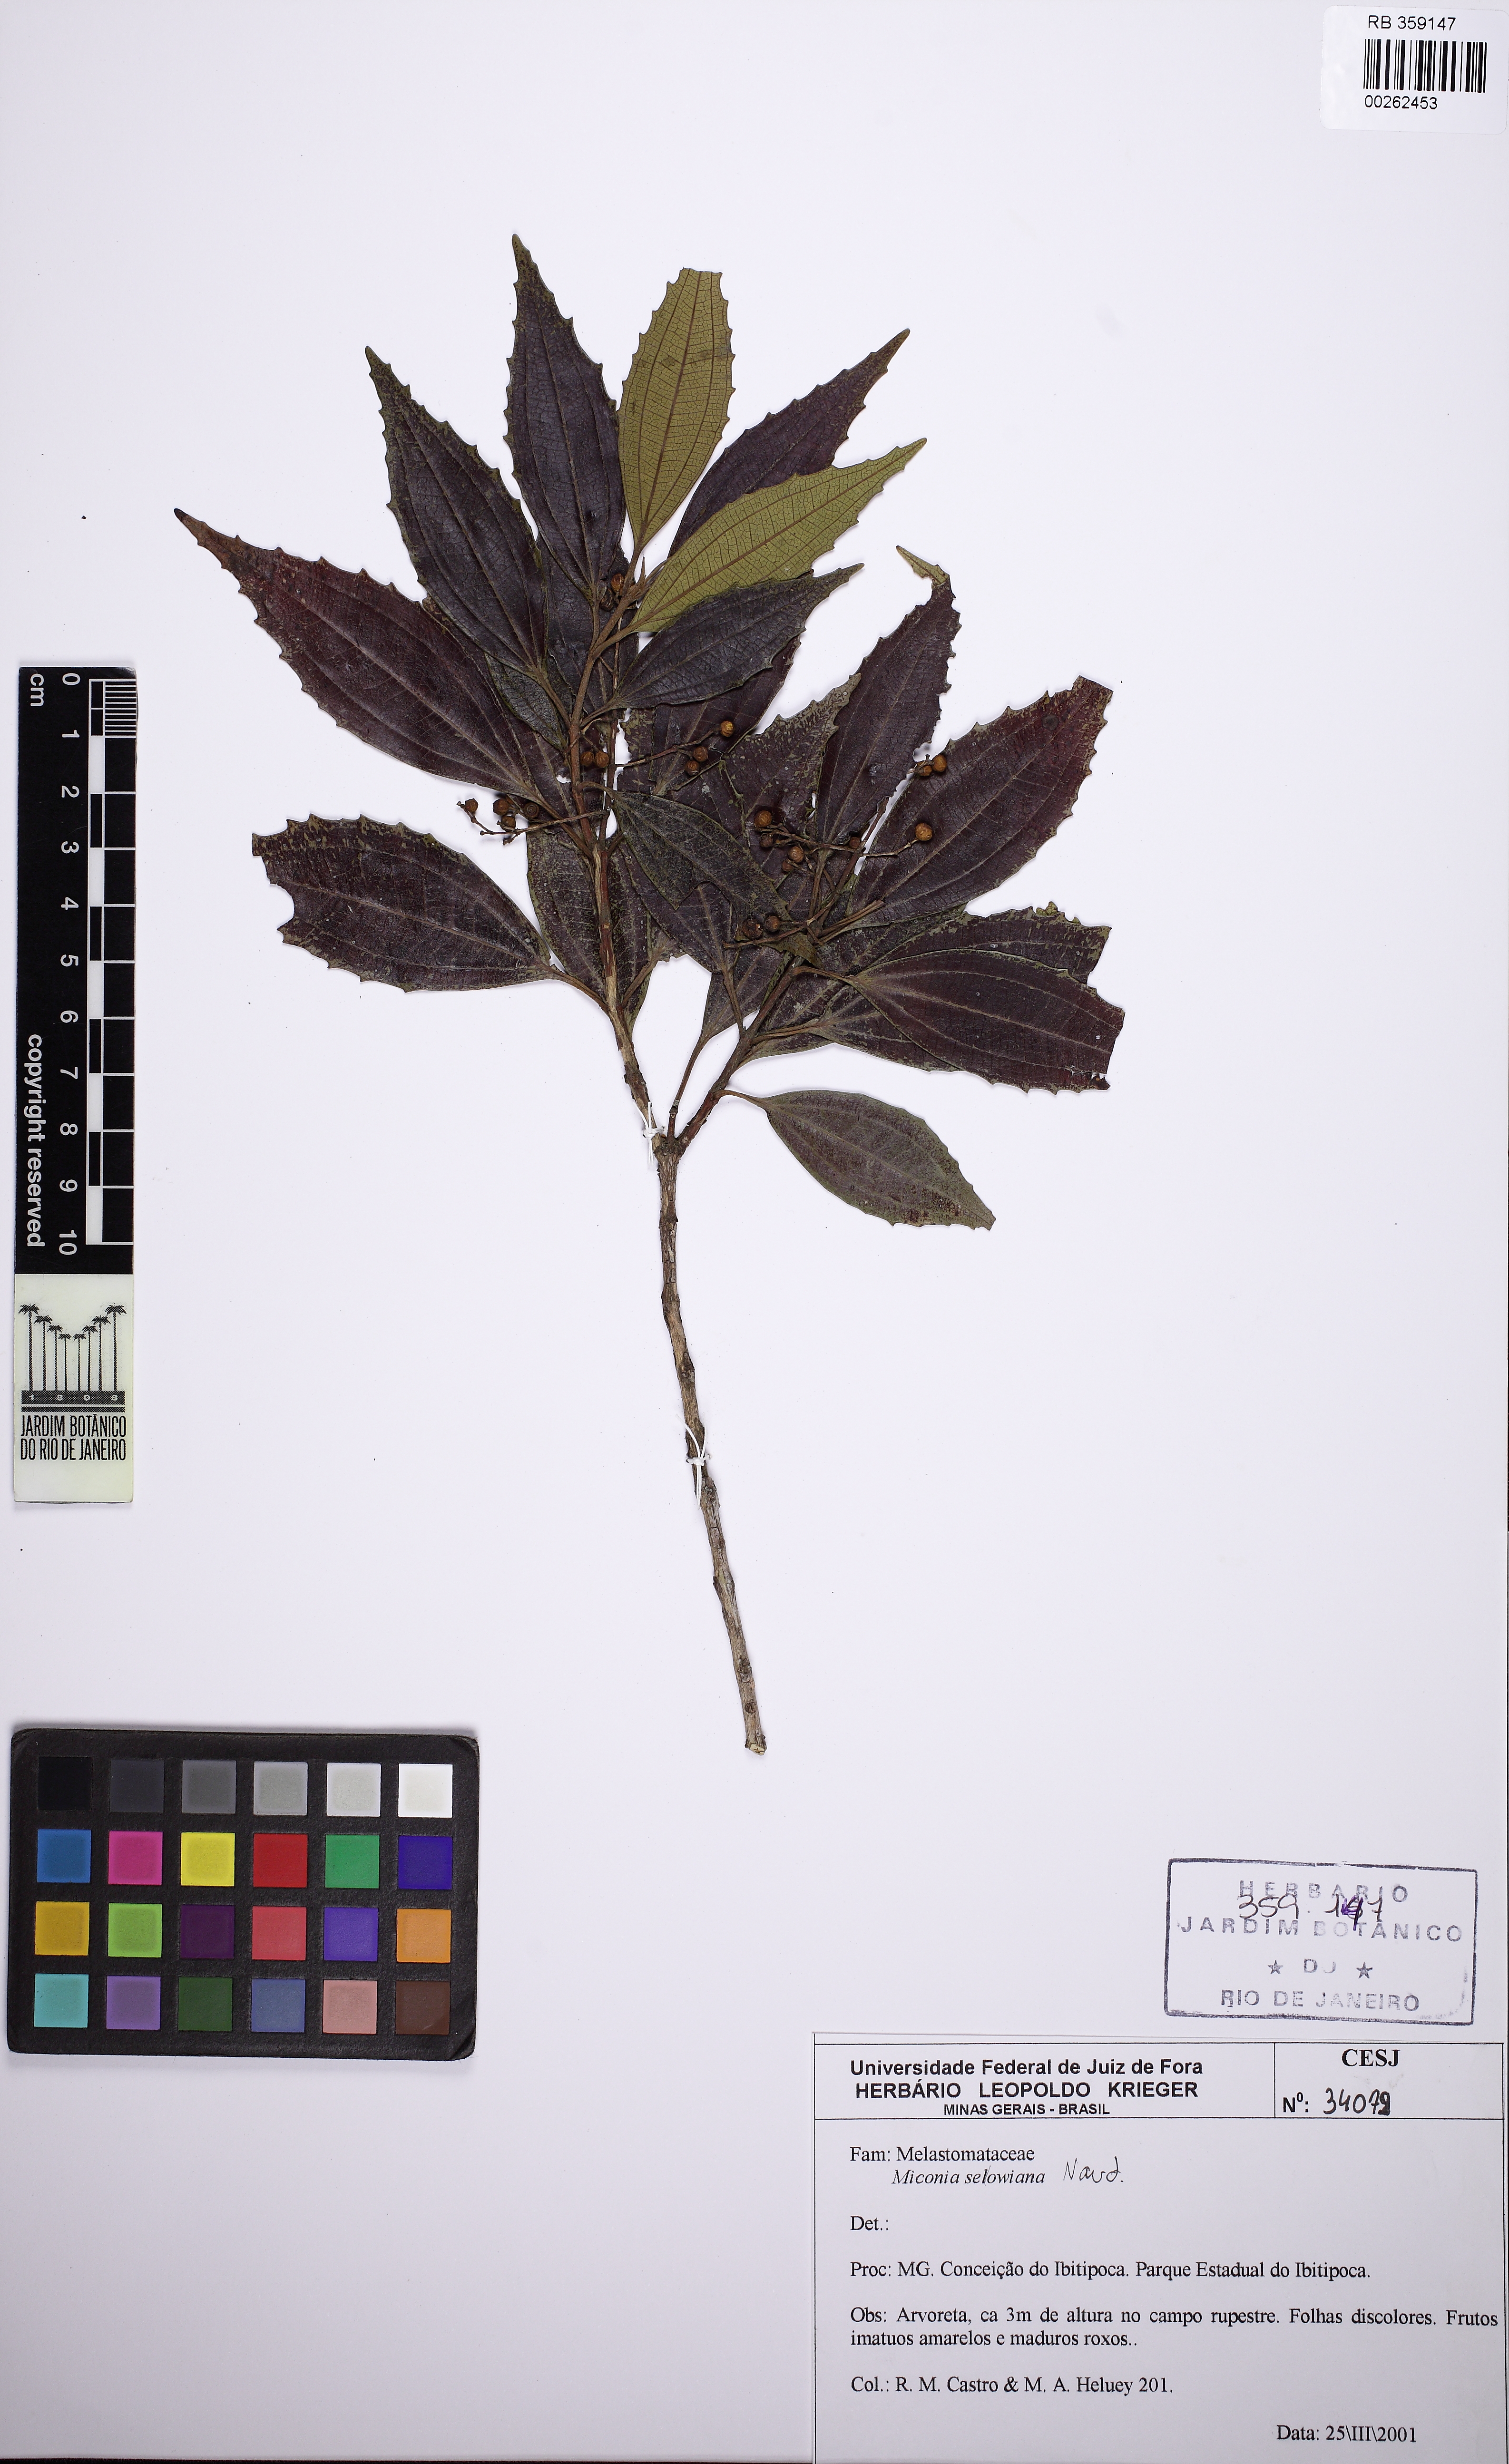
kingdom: Plantae
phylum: Tracheophyta
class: Magnoliopsida
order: Myrtales
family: Melastomataceae
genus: Miconia
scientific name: Miconia sellowiana
